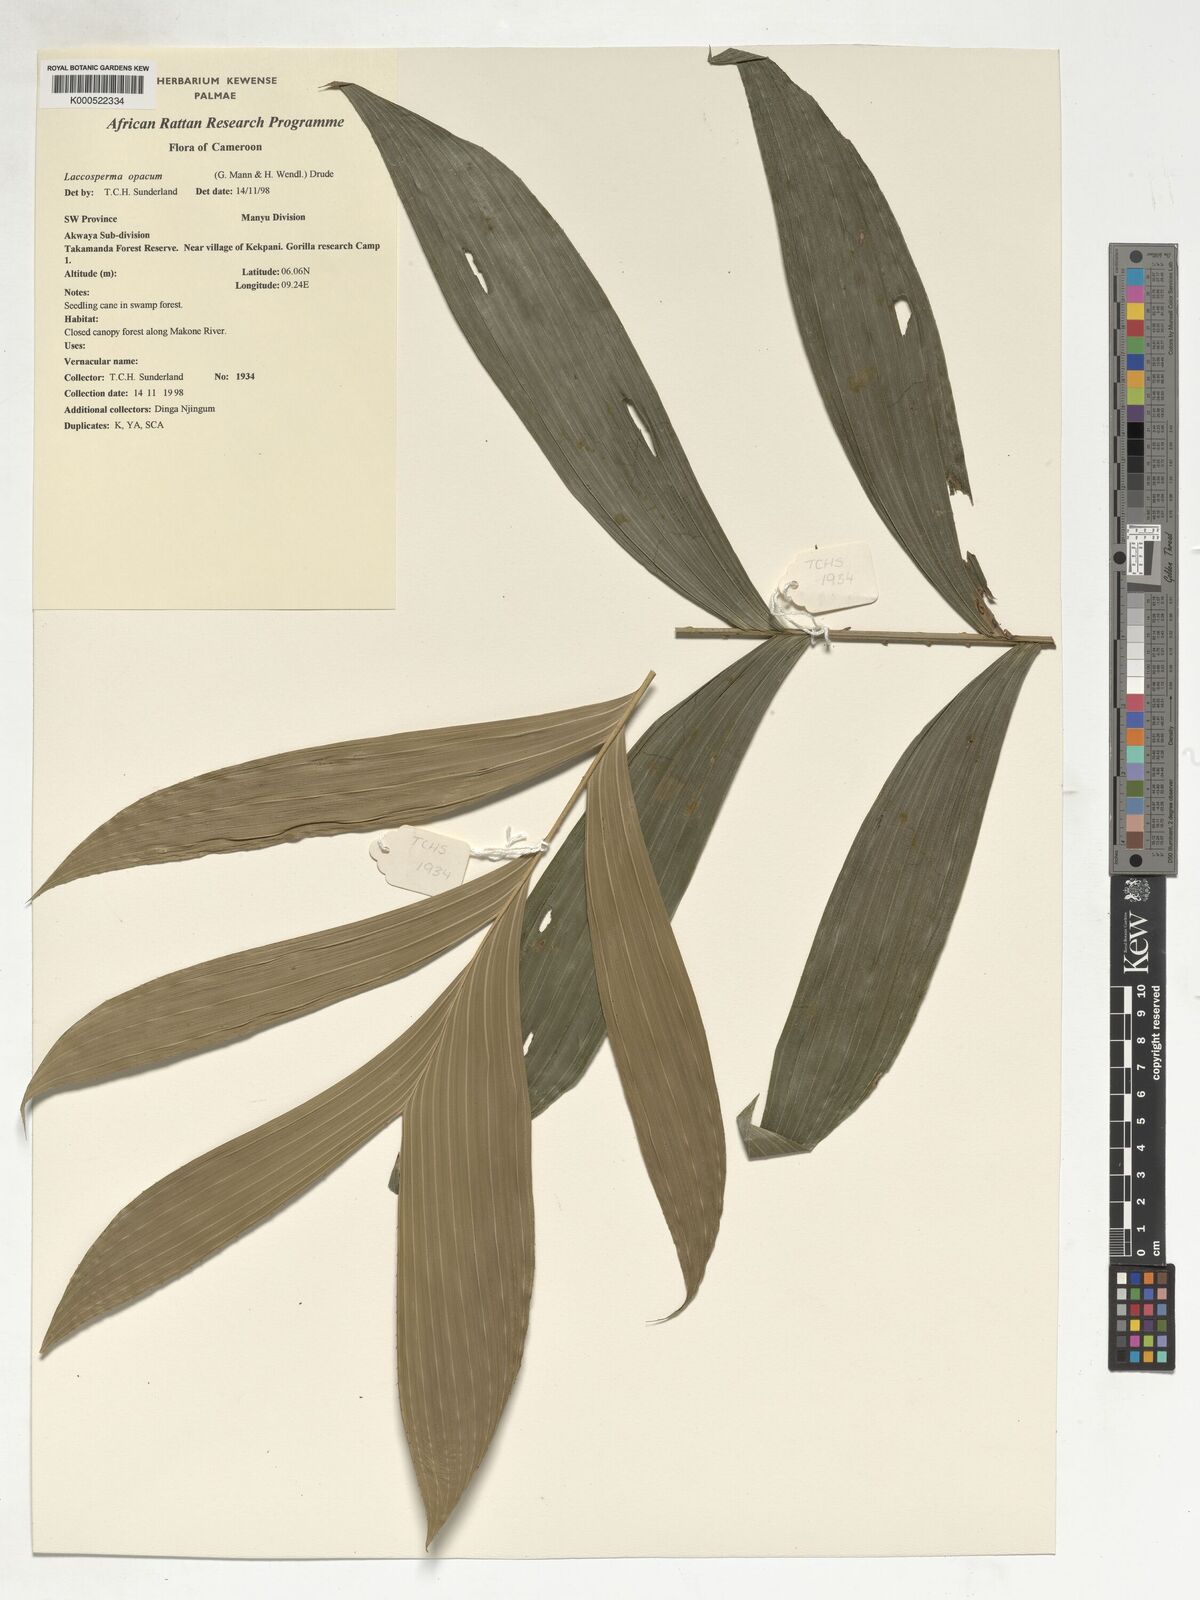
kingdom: Plantae
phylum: Tracheophyta
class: Liliopsida
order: Arecales
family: Arecaceae
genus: Laccosperma
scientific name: Laccosperma opacum
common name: Rattan
